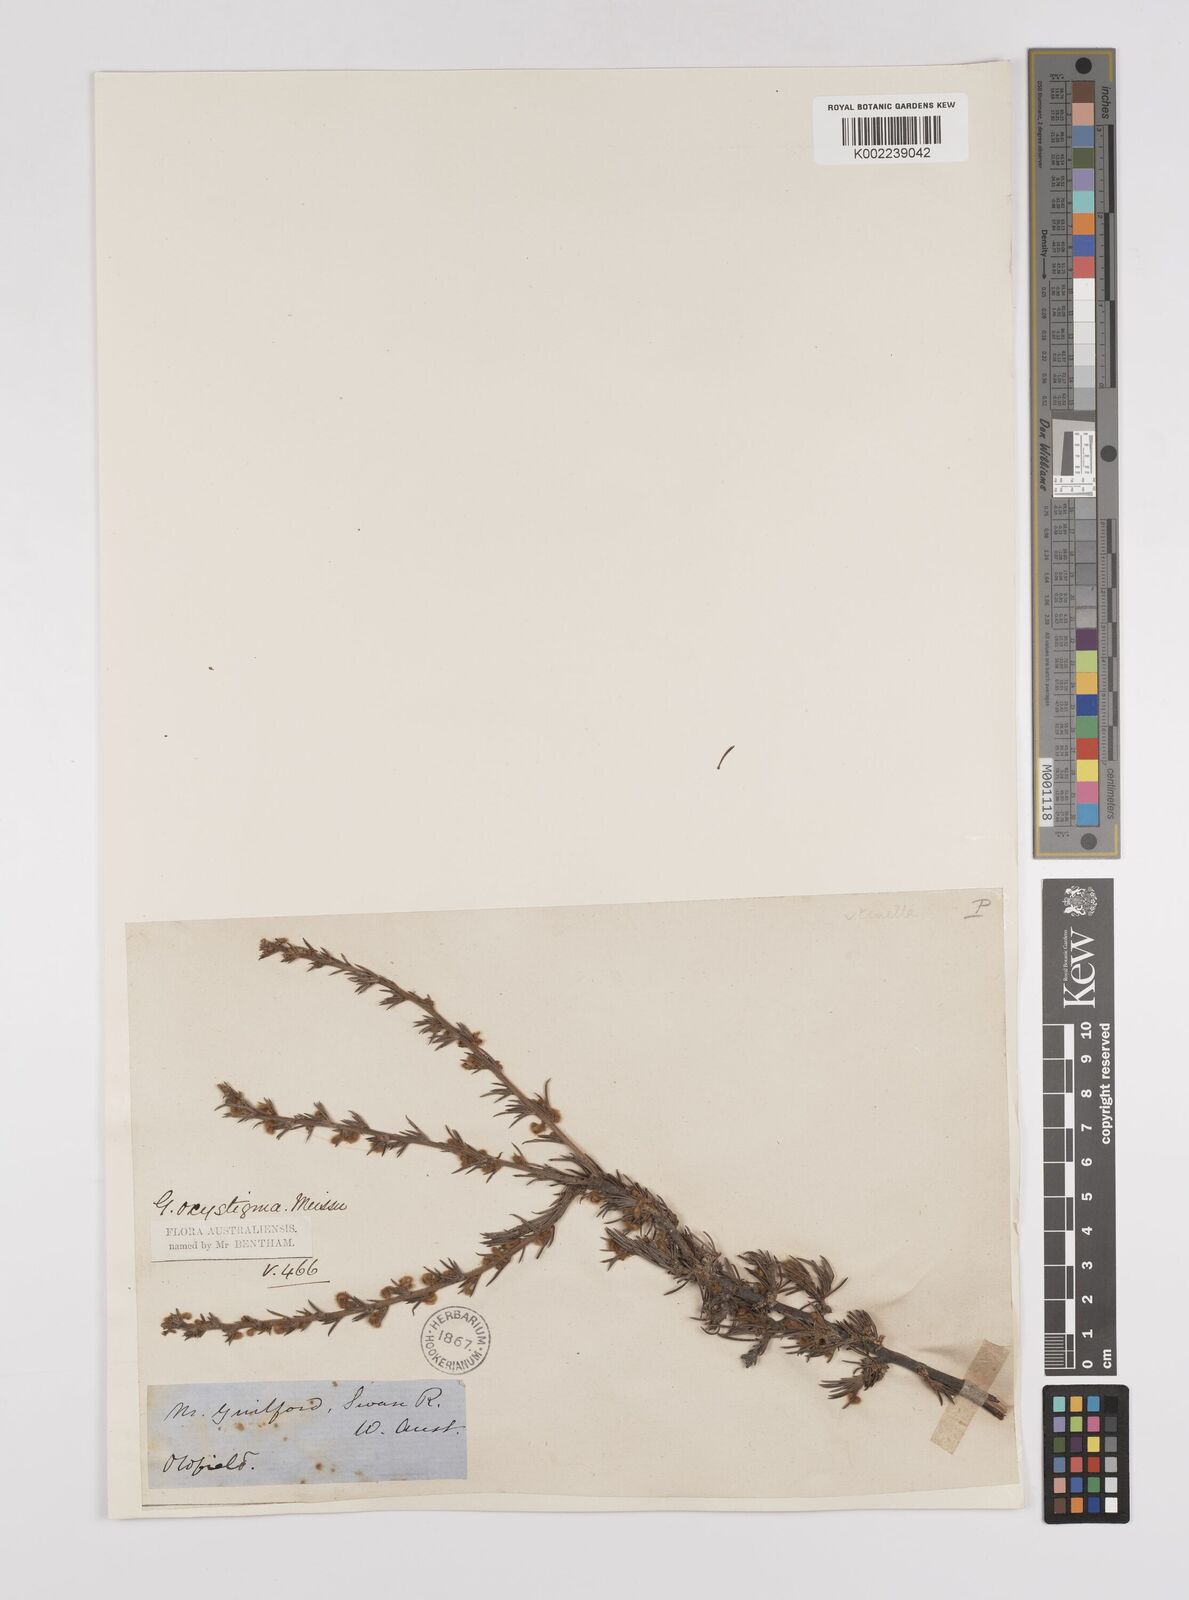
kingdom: Plantae
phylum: Tracheophyta
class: Magnoliopsida
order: Proteales
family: Proteaceae
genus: Grevillea
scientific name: Grevillea pilulifera
